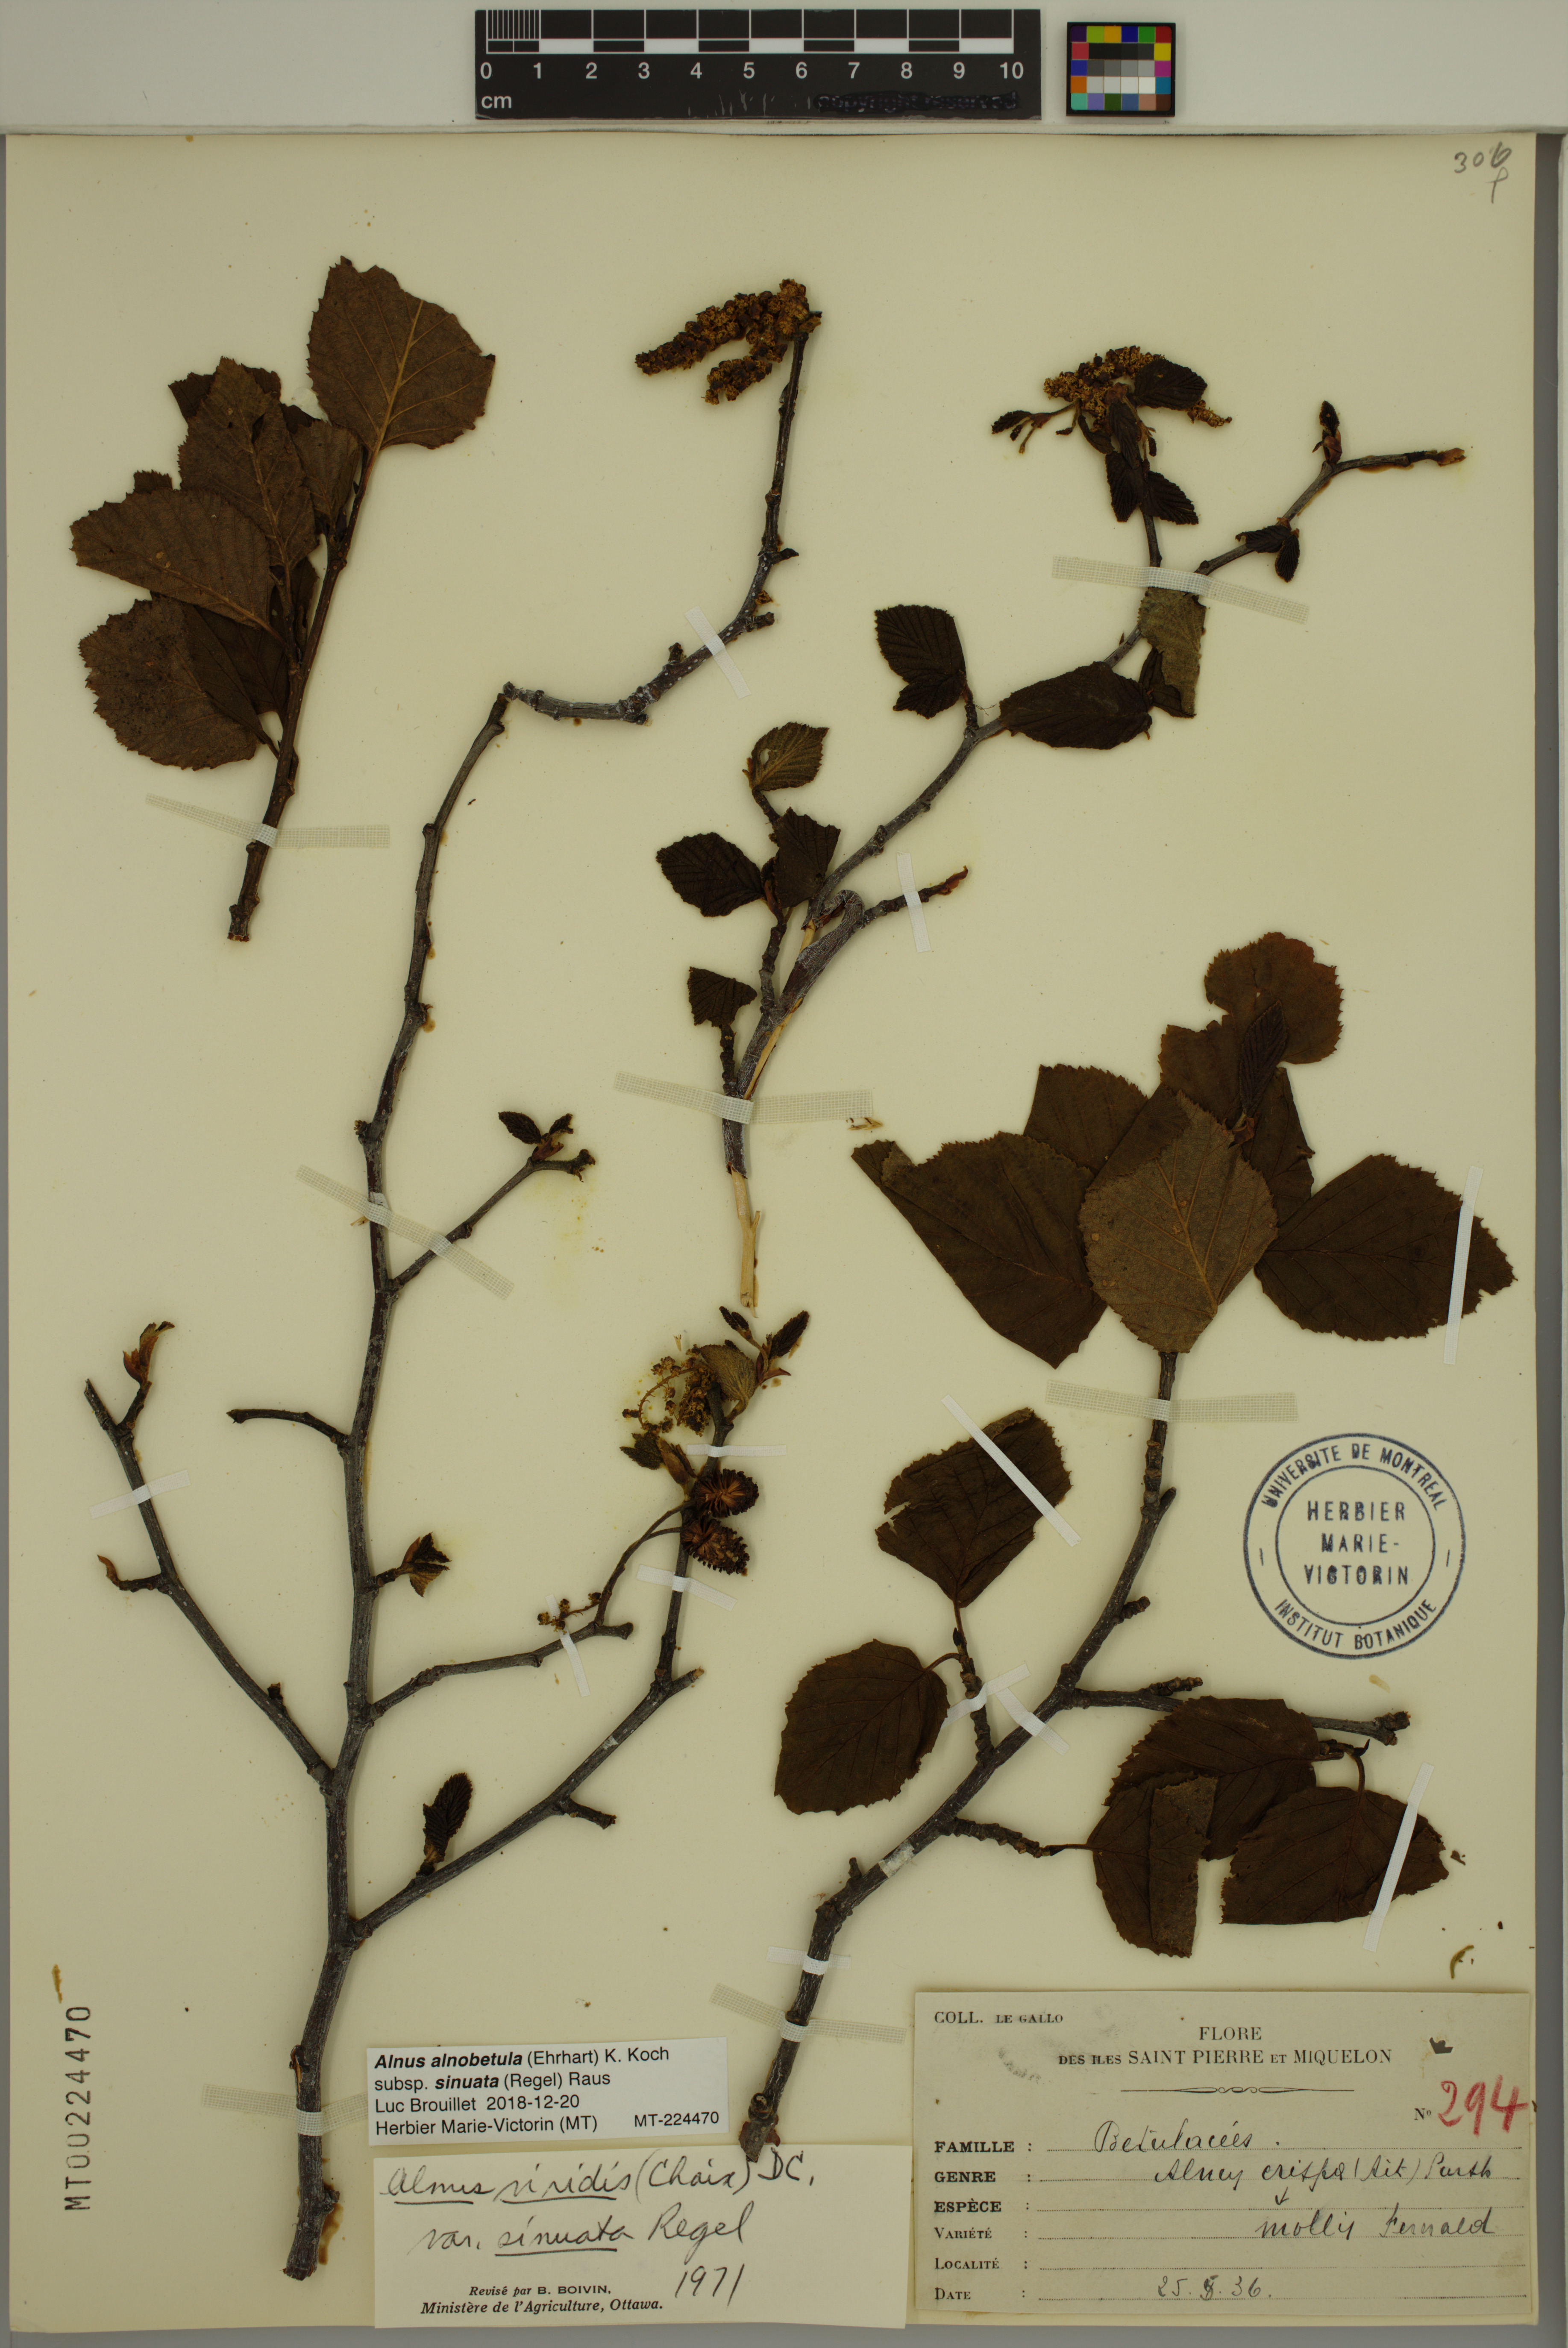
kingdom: Plantae
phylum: Tracheophyta
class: Magnoliopsida
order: Fagales
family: Betulaceae
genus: Alnus
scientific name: Alnus alnobetula
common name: Green alder
